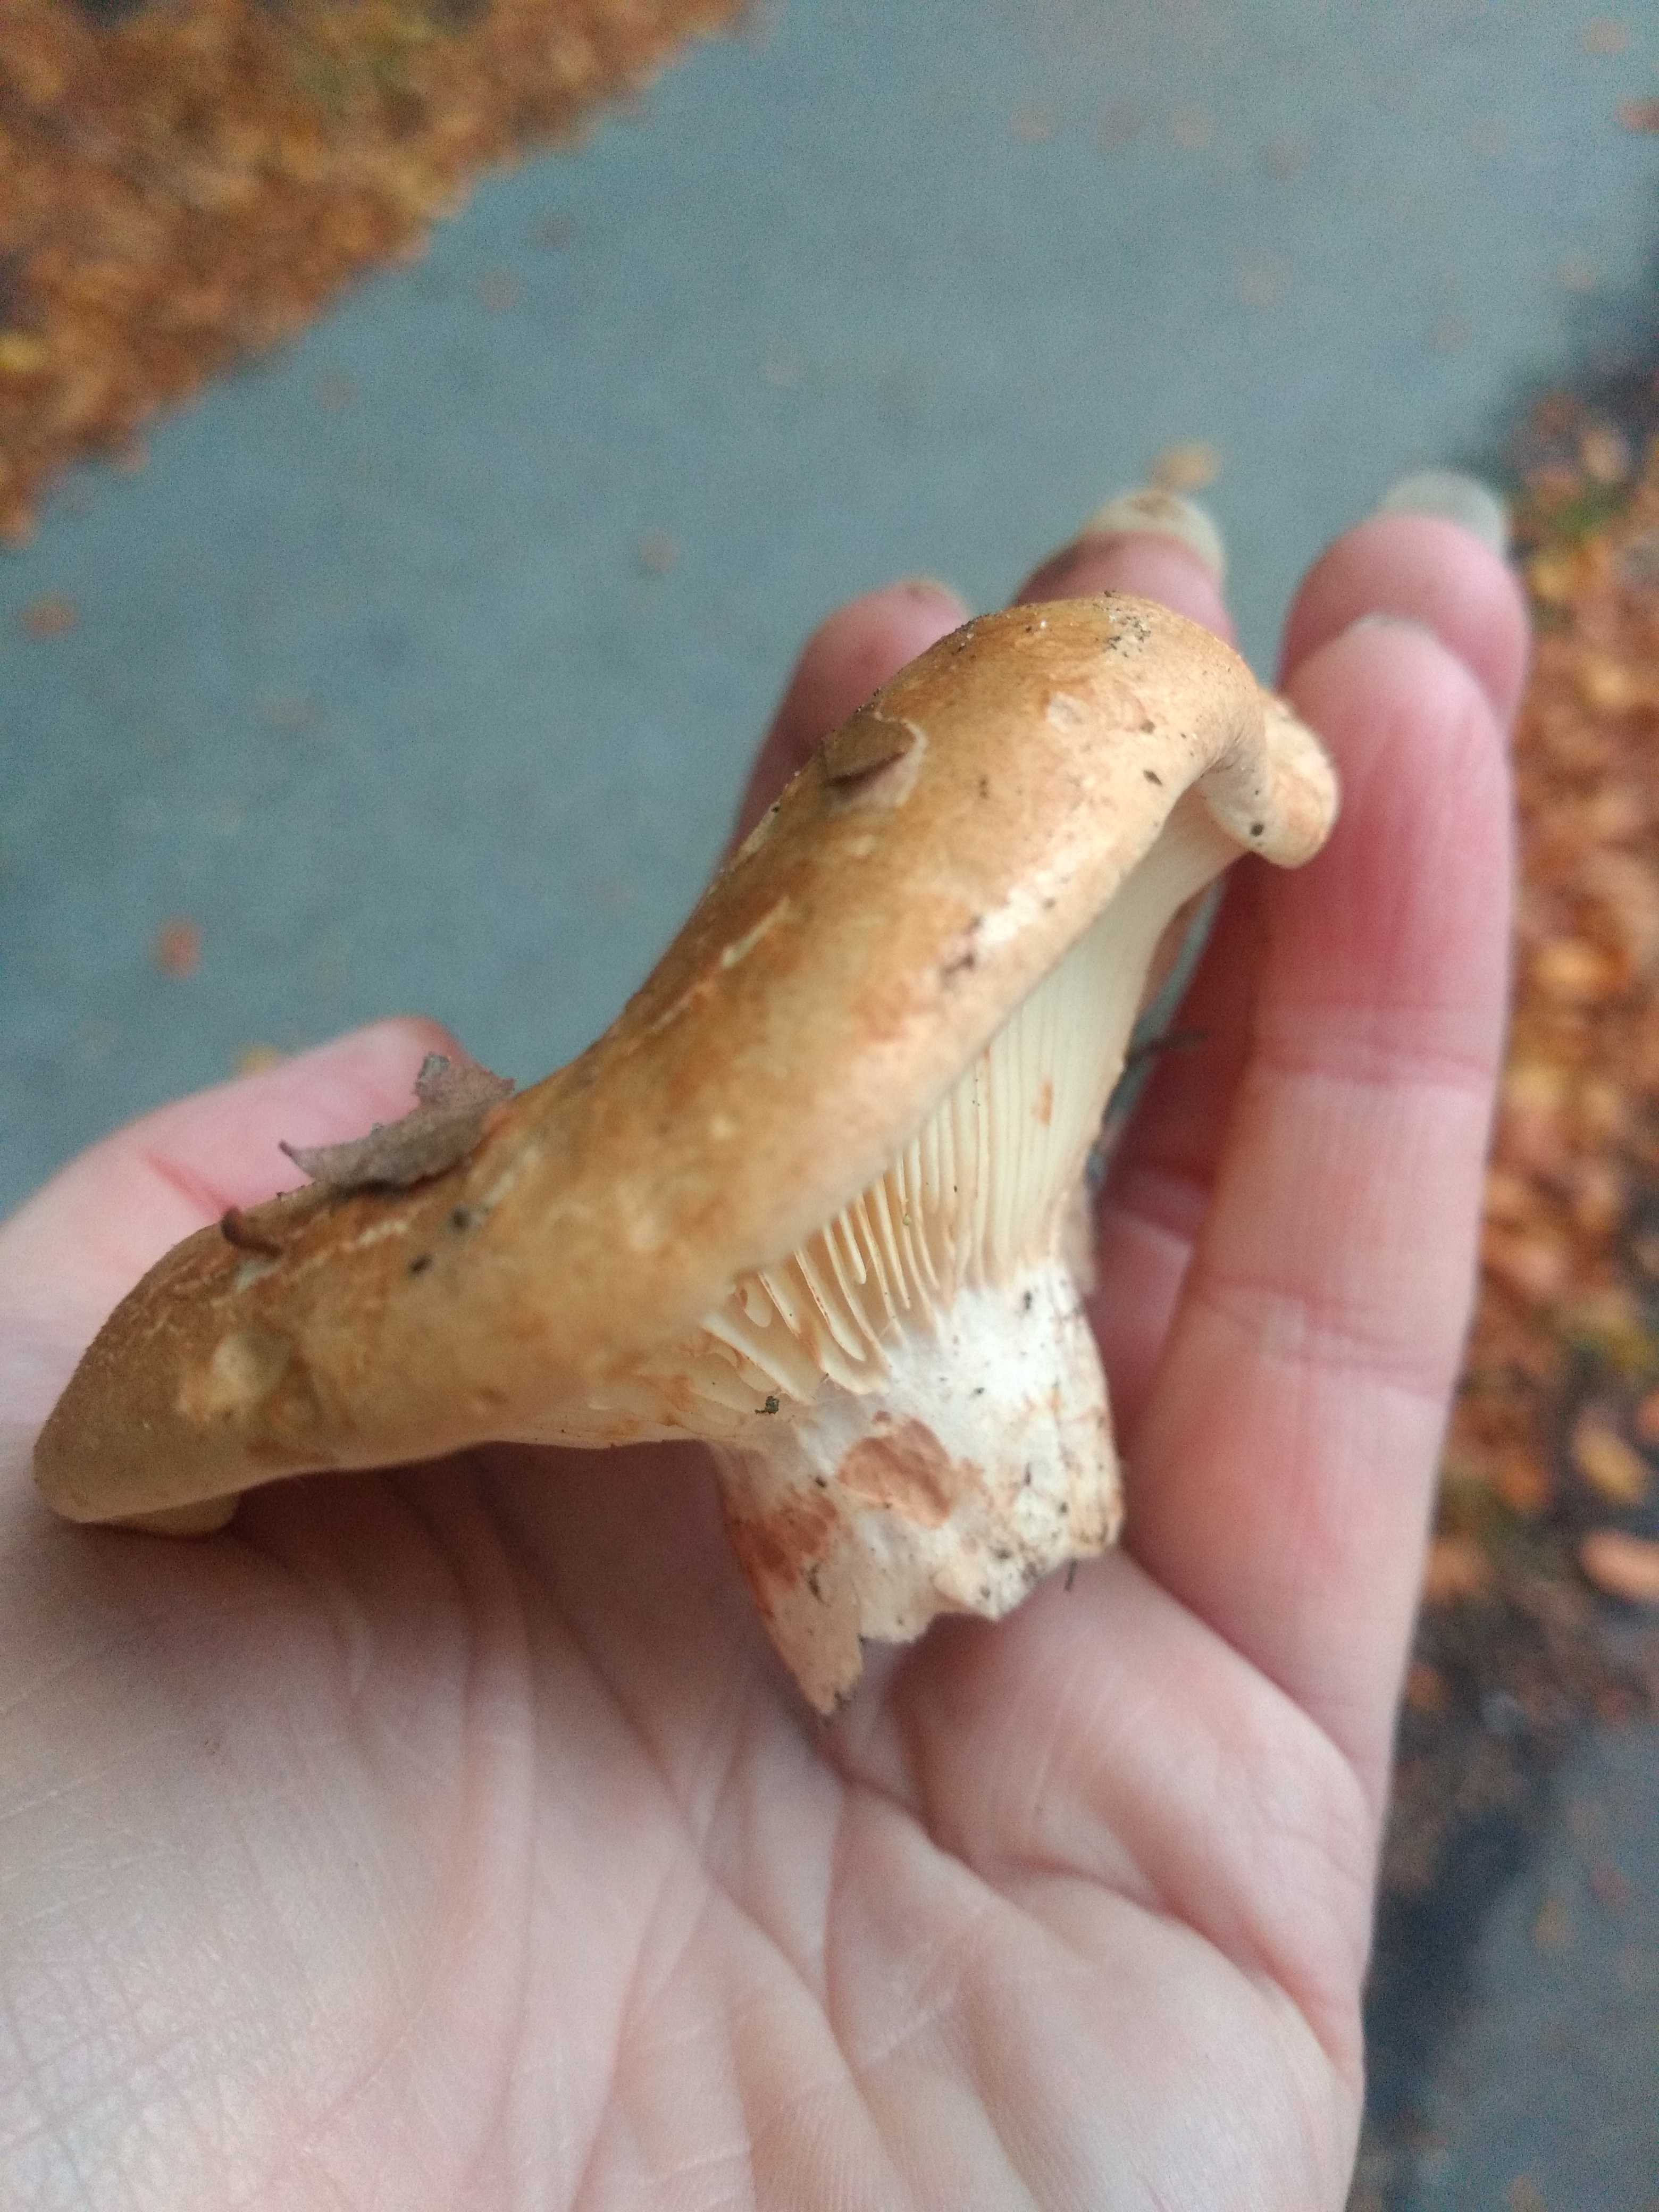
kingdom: Fungi
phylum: Basidiomycota
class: Agaricomycetes
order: Russulales
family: Russulaceae
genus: Lactarius
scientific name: Lactarius pallidus
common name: bleg mælkehat
